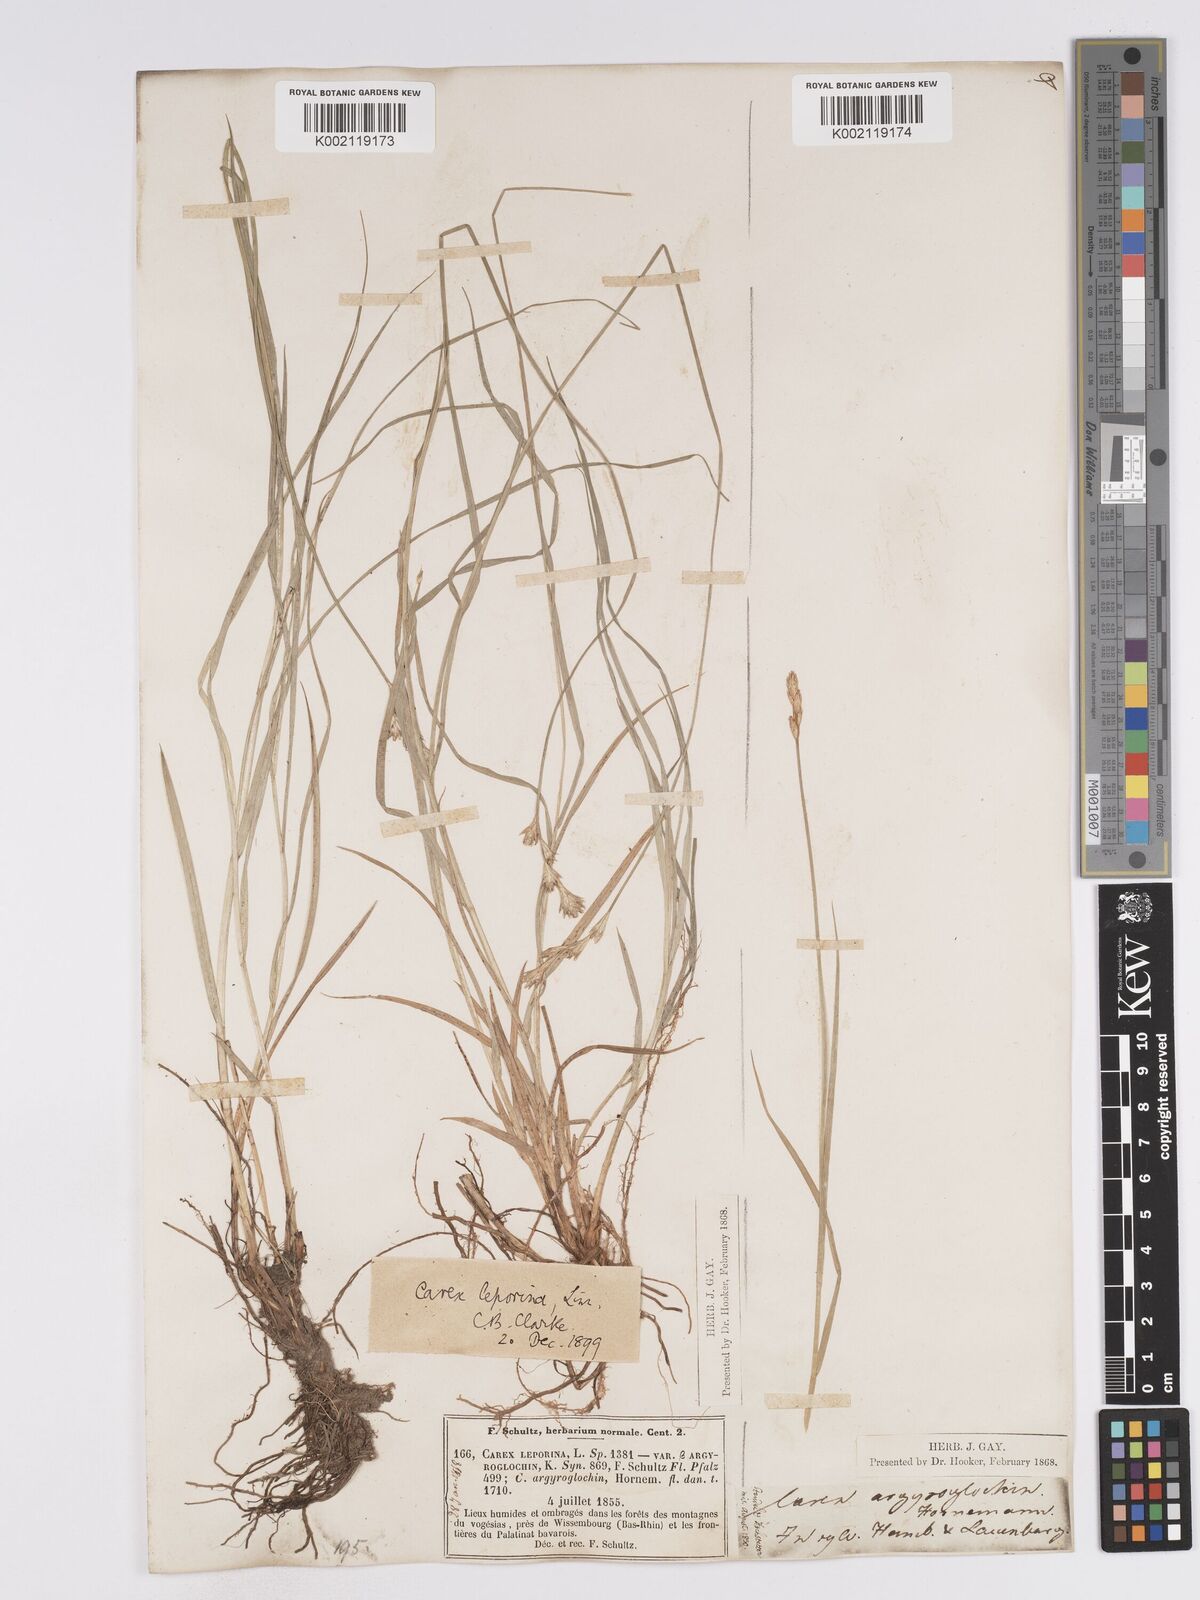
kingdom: Plantae
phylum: Tracheophyta
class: Liliopsida
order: Poales
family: Cyperaceae
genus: Carex
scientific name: Carex leporina
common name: Oval sedge
